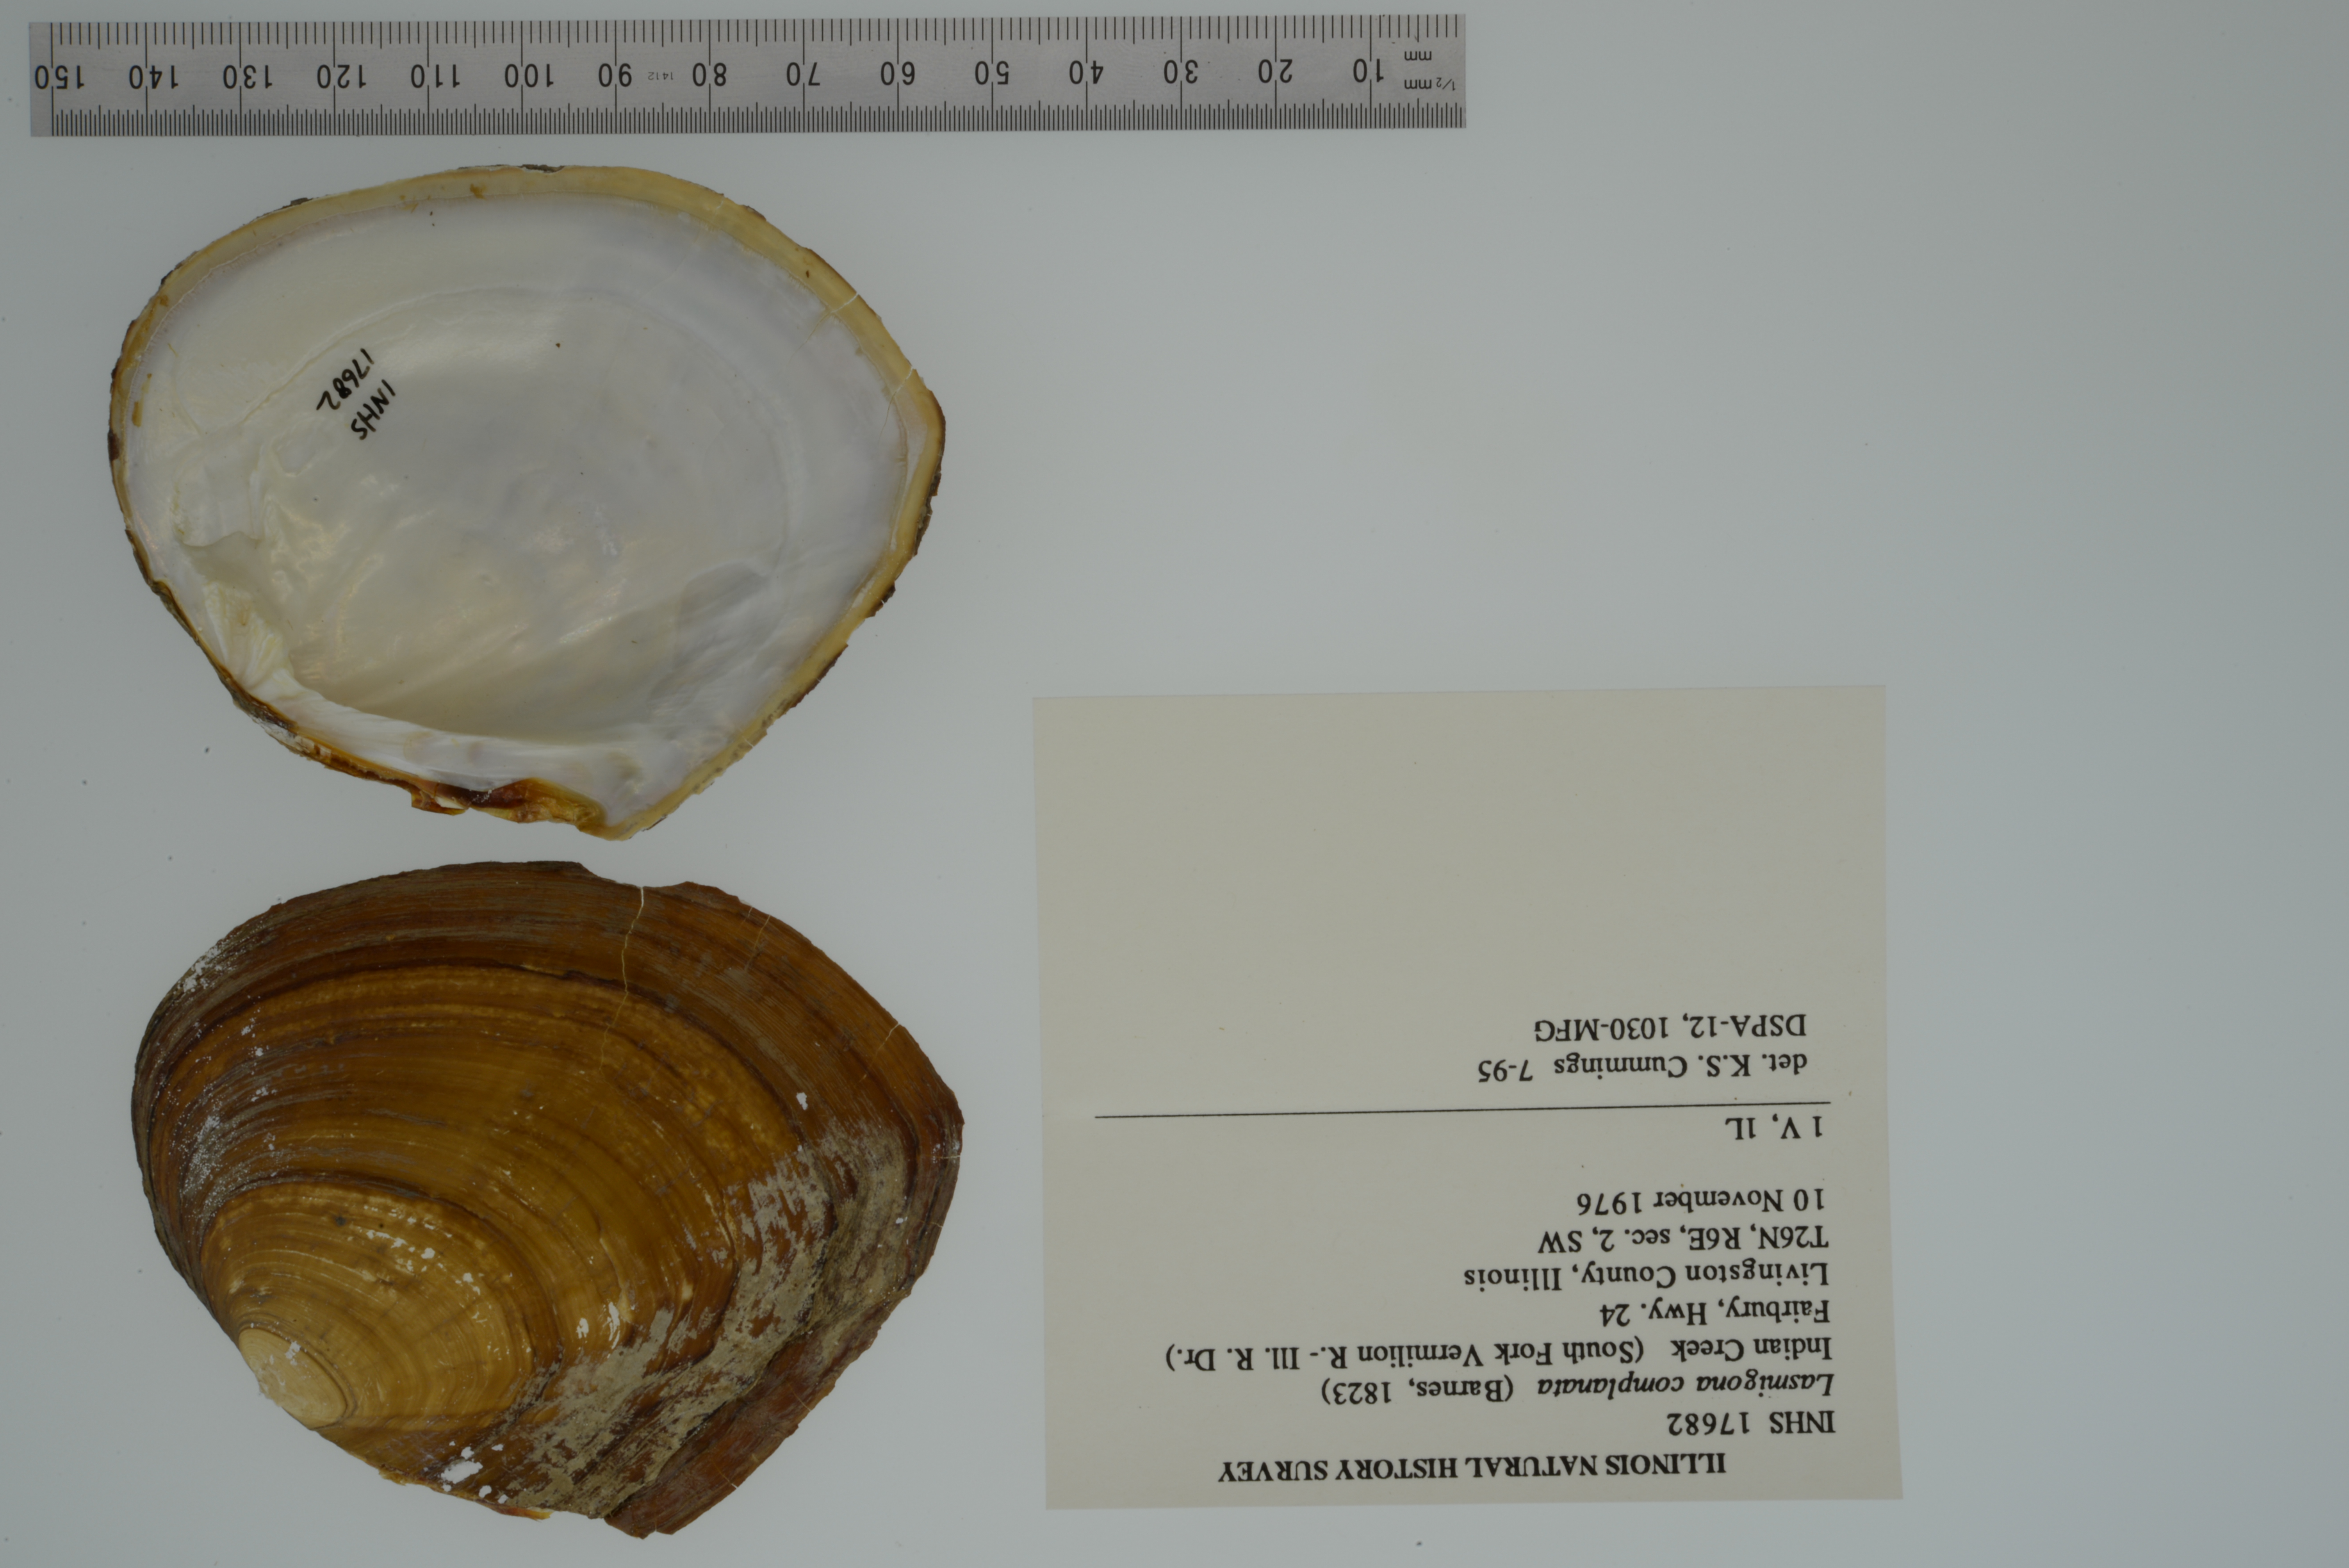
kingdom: Animalia
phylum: Mollusca
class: Bivalvia
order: Unionida
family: Unionidae
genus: Lasmigona
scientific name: Lasmigona complanata
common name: White heelsplitter
